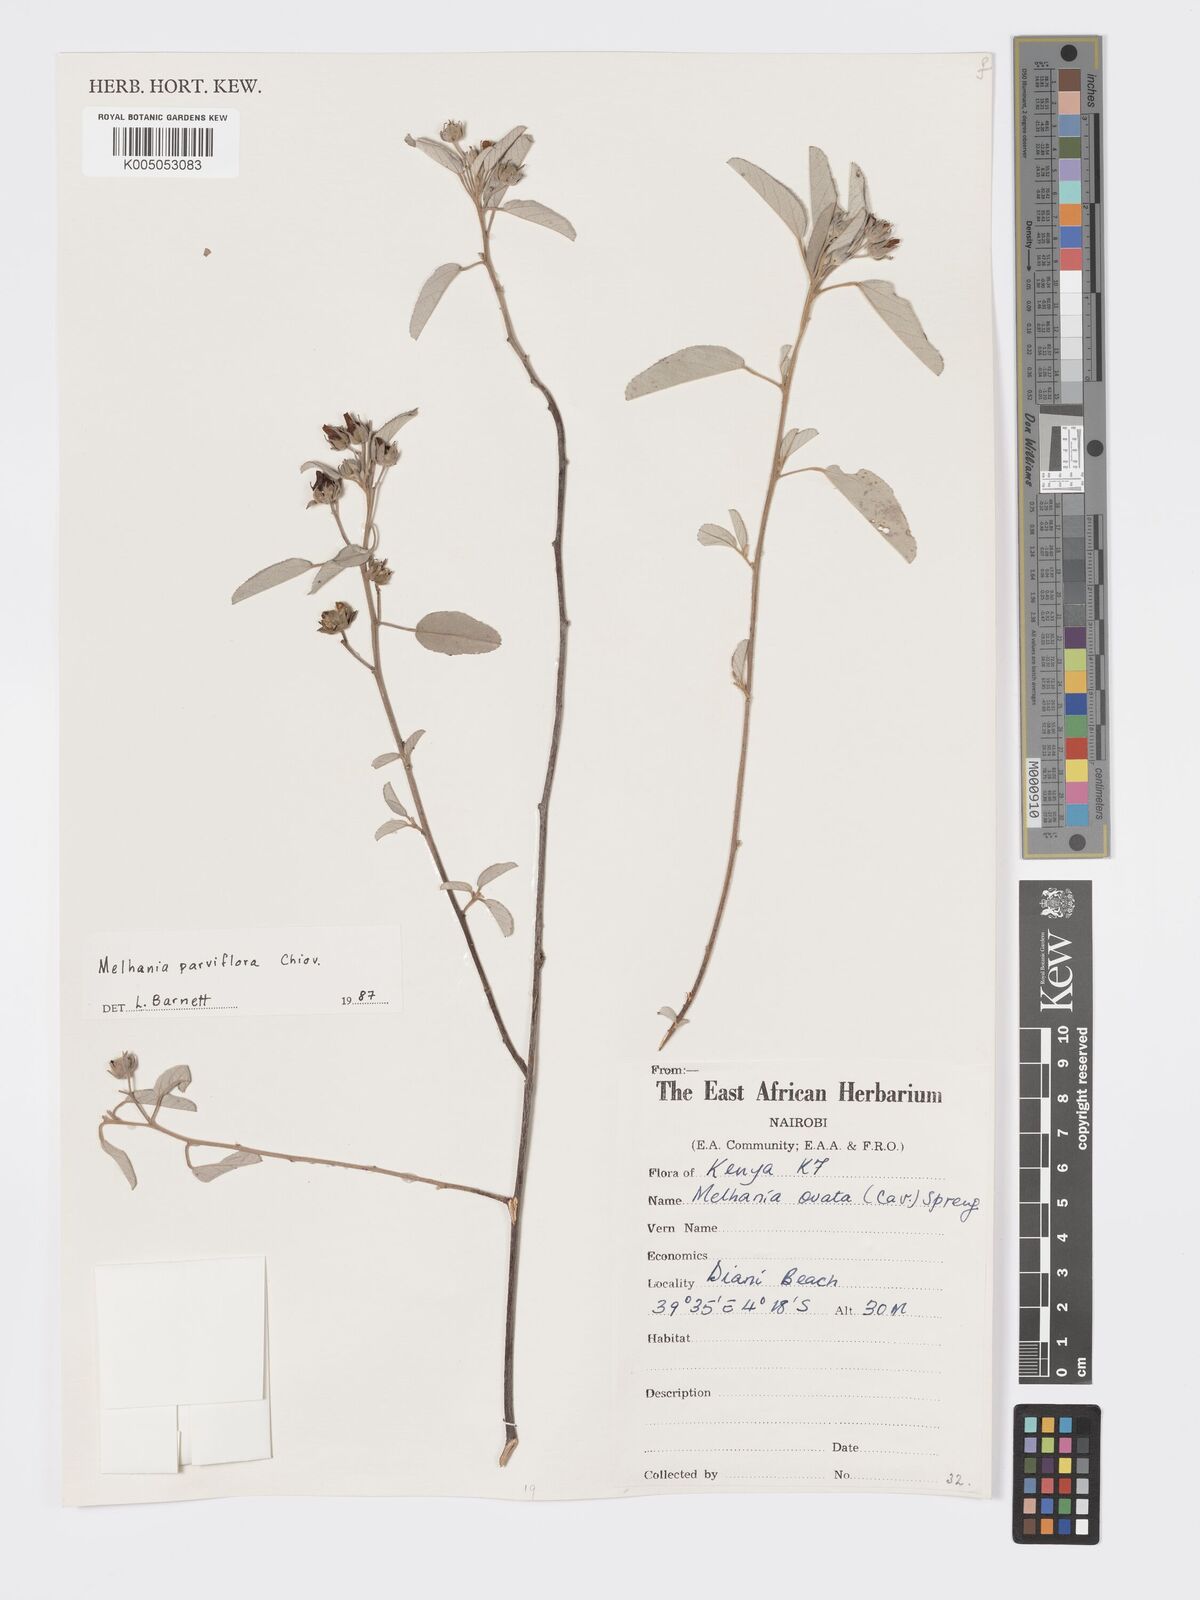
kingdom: Plantae
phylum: Tracheophyta
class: Magnoliopsida
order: Malvales
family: Malvaceae
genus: Melhania
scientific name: Melhania parviflora
